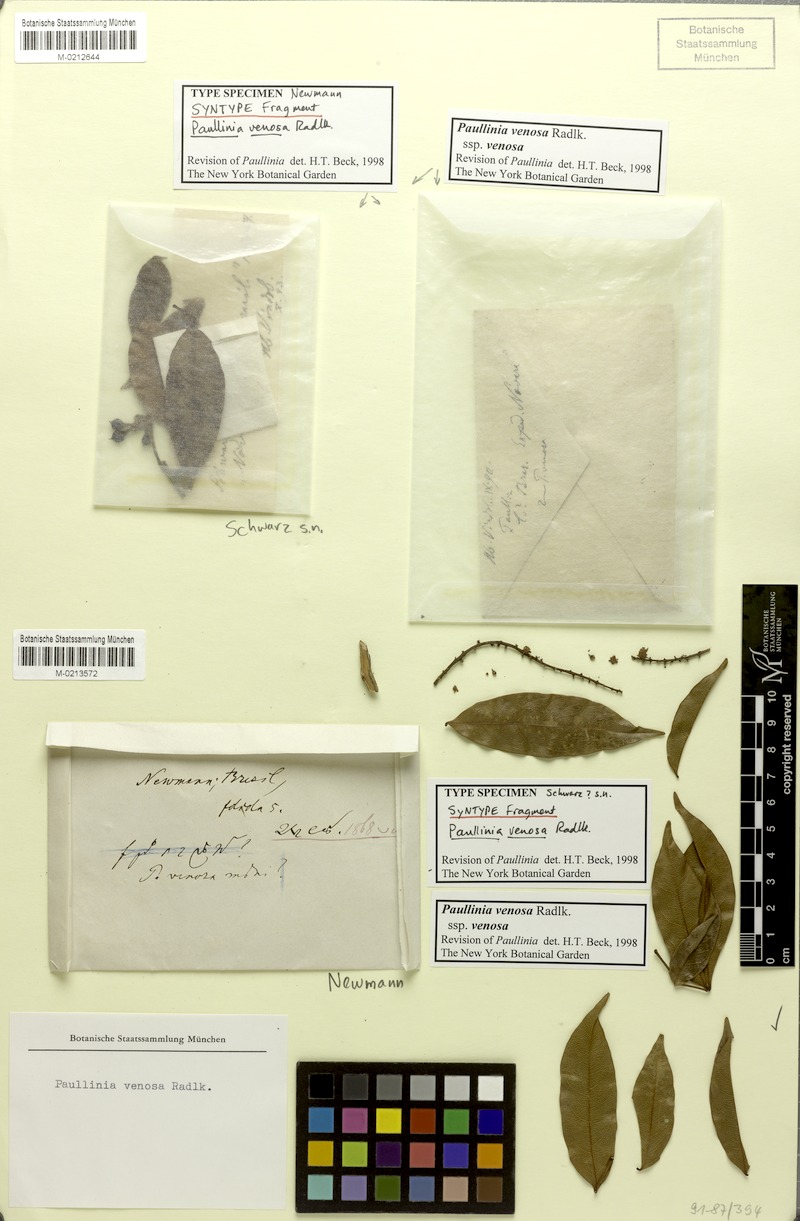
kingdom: Plantae
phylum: Tracheophyta
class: Magnoliopsida
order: Sapindales
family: Sapindaceae
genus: Paullinia
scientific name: Paullinia venosa
